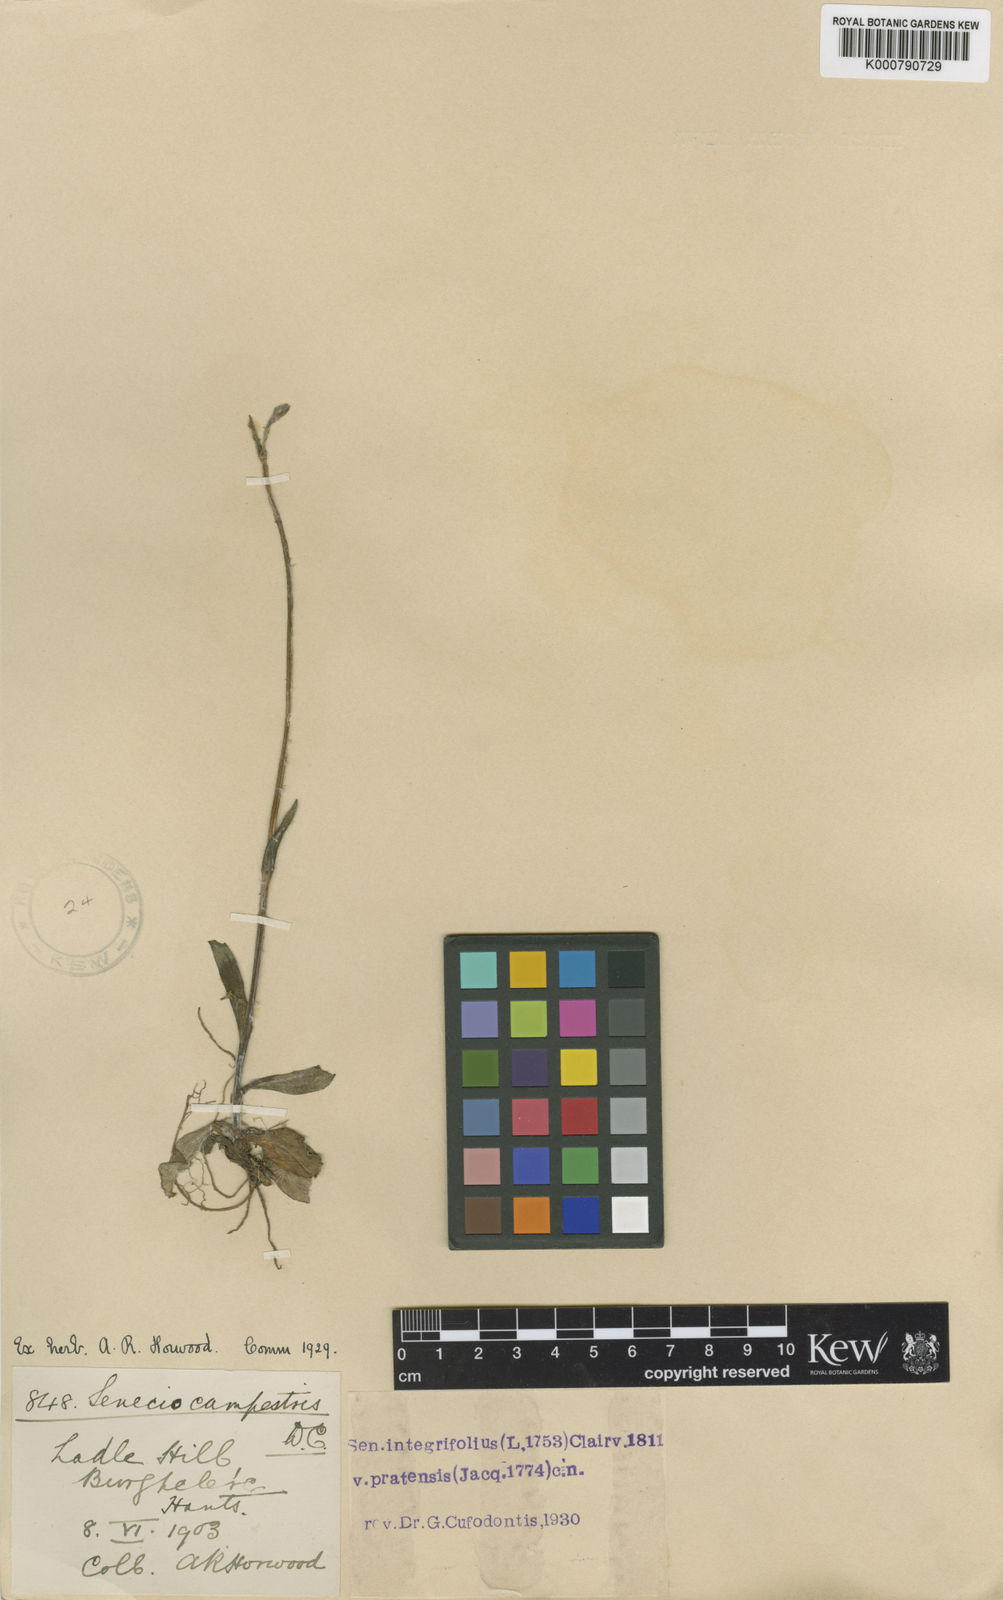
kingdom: Plantae
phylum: Tracheophyta
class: Magnoliopsida
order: Asterales
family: Asteraceae
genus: Tephroseris
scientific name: Tephroseris integrifolia
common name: Field fleawort
